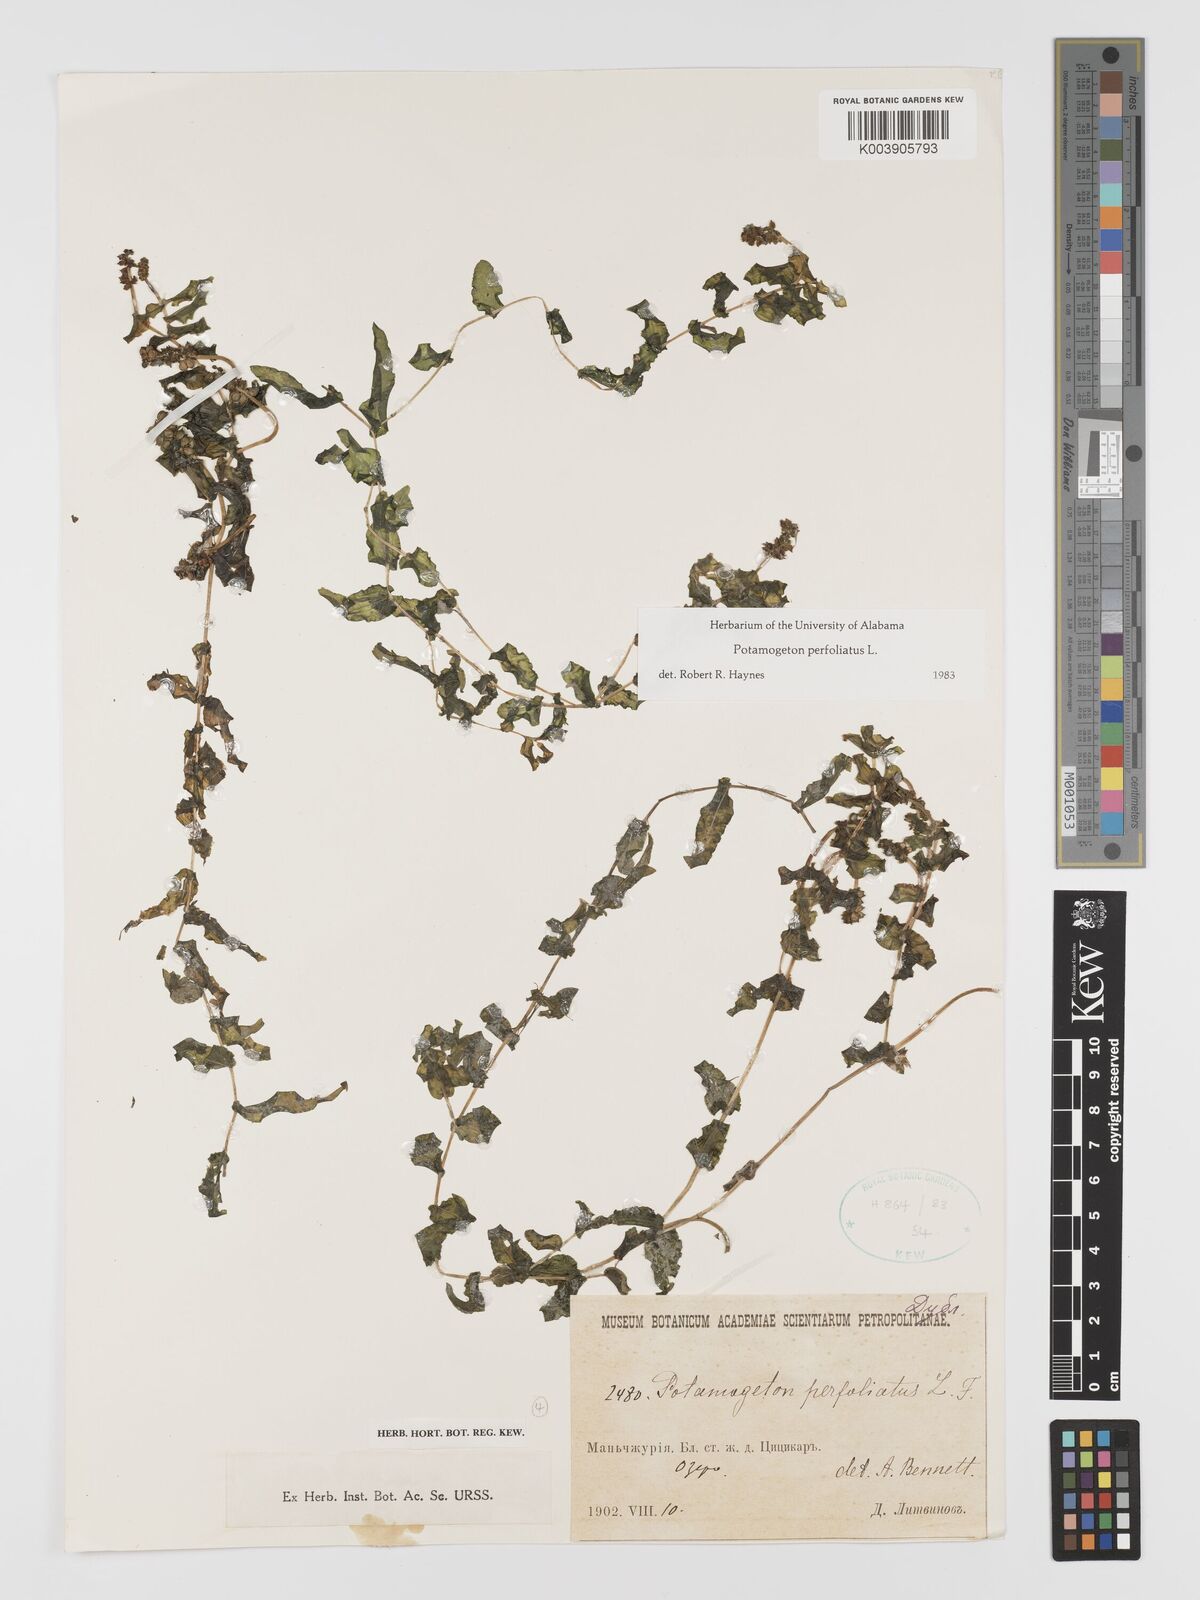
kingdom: Plantae
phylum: Tracheophyta
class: Liliopsida
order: Alismatales
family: Potamogetonaceae
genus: Potamogeton
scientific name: Potamogeton perfoliatus
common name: Perfoliate pondweed
